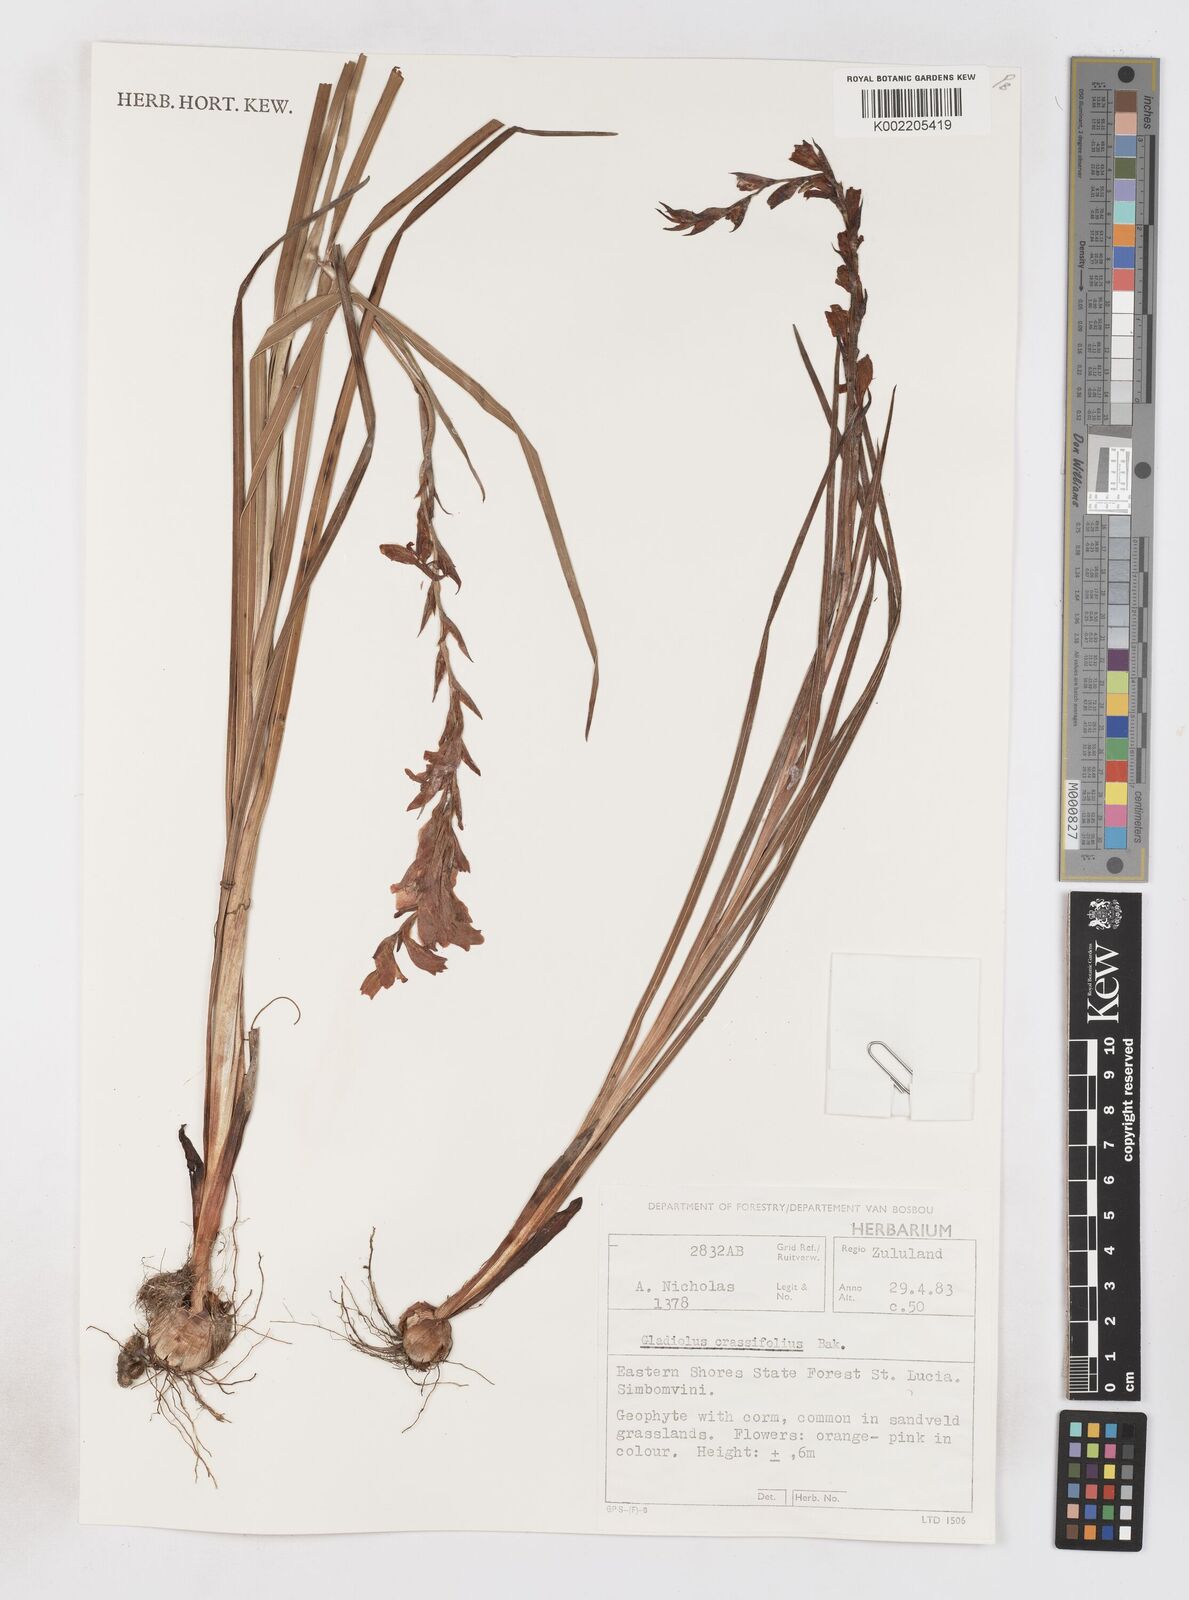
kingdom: Plantae
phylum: Tracheophyta
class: Liliopsida
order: Asparagales
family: Iridaceae
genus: Gladiolus
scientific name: Gladiolus densiflorus
